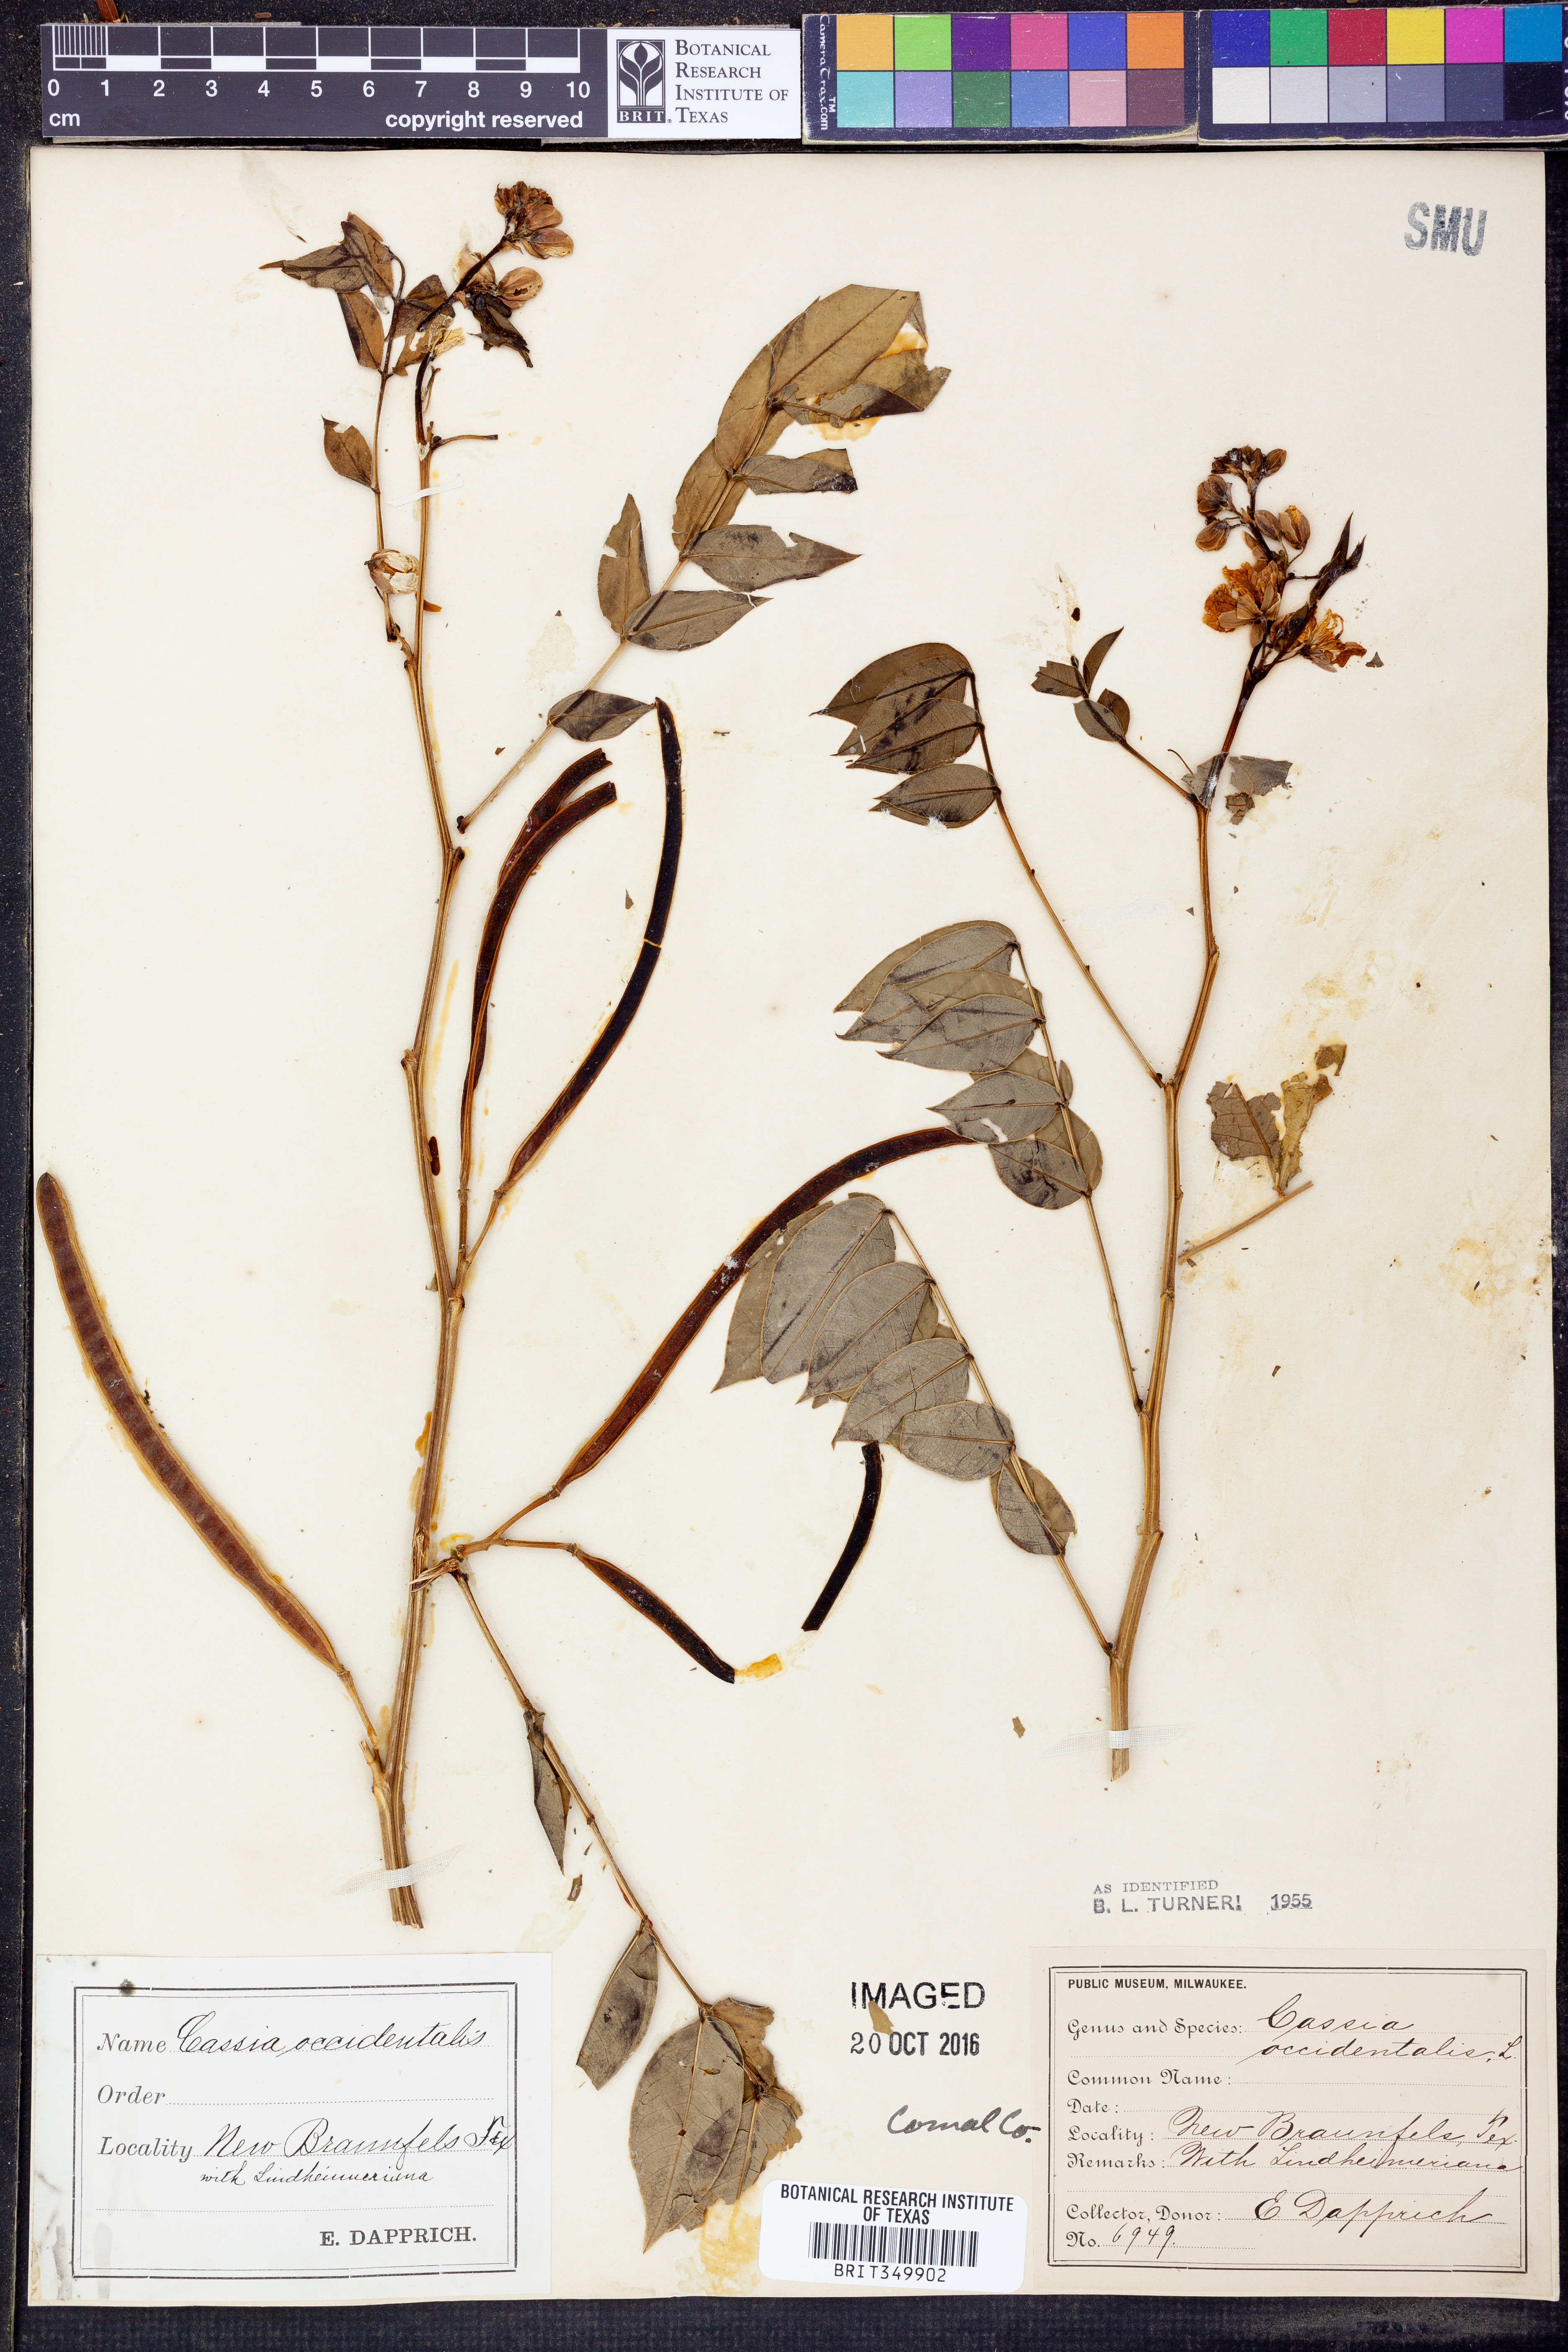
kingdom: Plantae
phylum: Tracheophyta
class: Magnoliopsida
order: Fabales
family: Fabaceae
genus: Senna
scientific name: Senna occidentalis
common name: Septicweed
